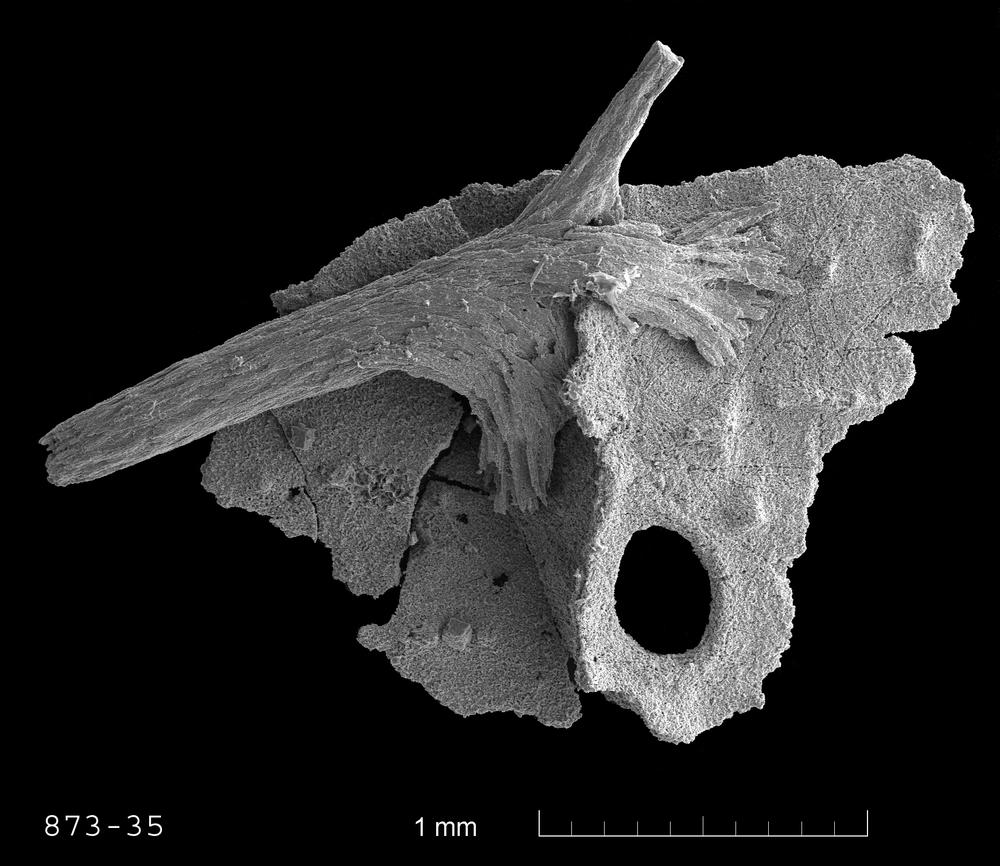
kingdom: Animalia
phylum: Bryozoa
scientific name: Bryozoa
